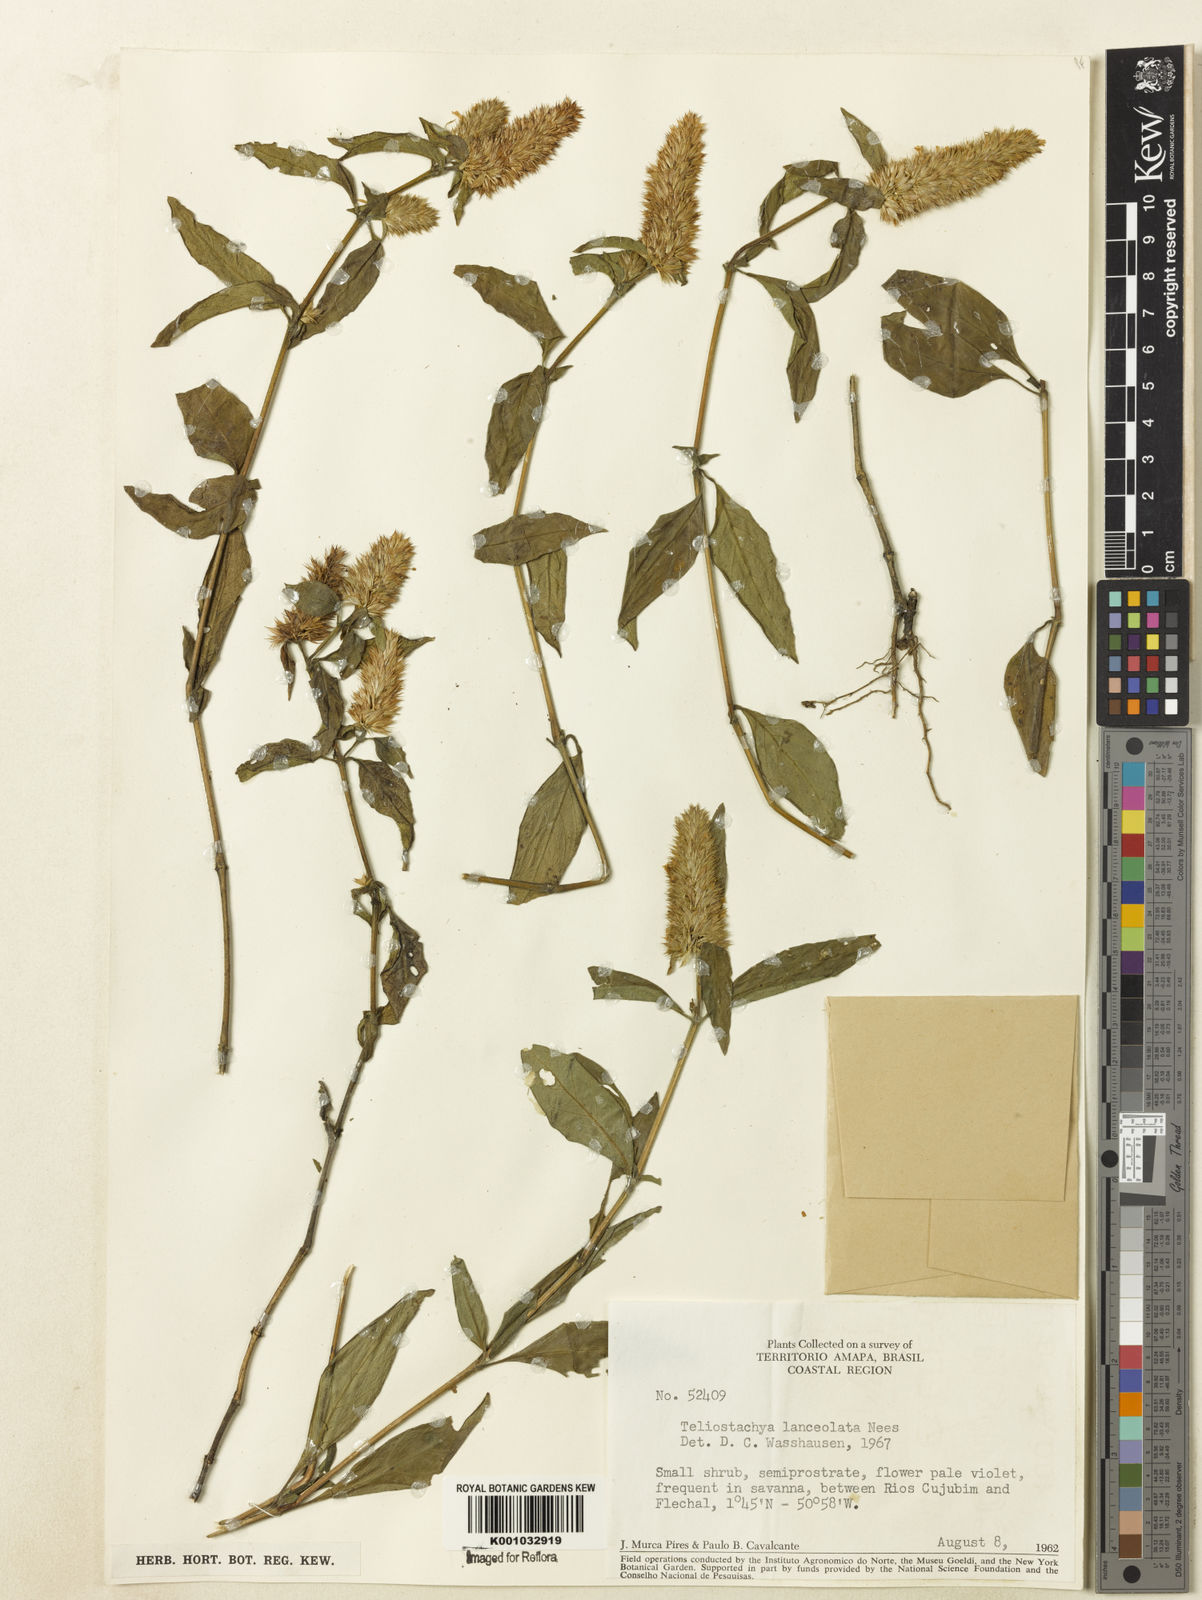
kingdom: Plantae
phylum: Tracheophyta
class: Magnoliopsida
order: Lamiales
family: Acanthaceae
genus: Lepidagathis
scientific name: Lepidagathis alopecuroidea
